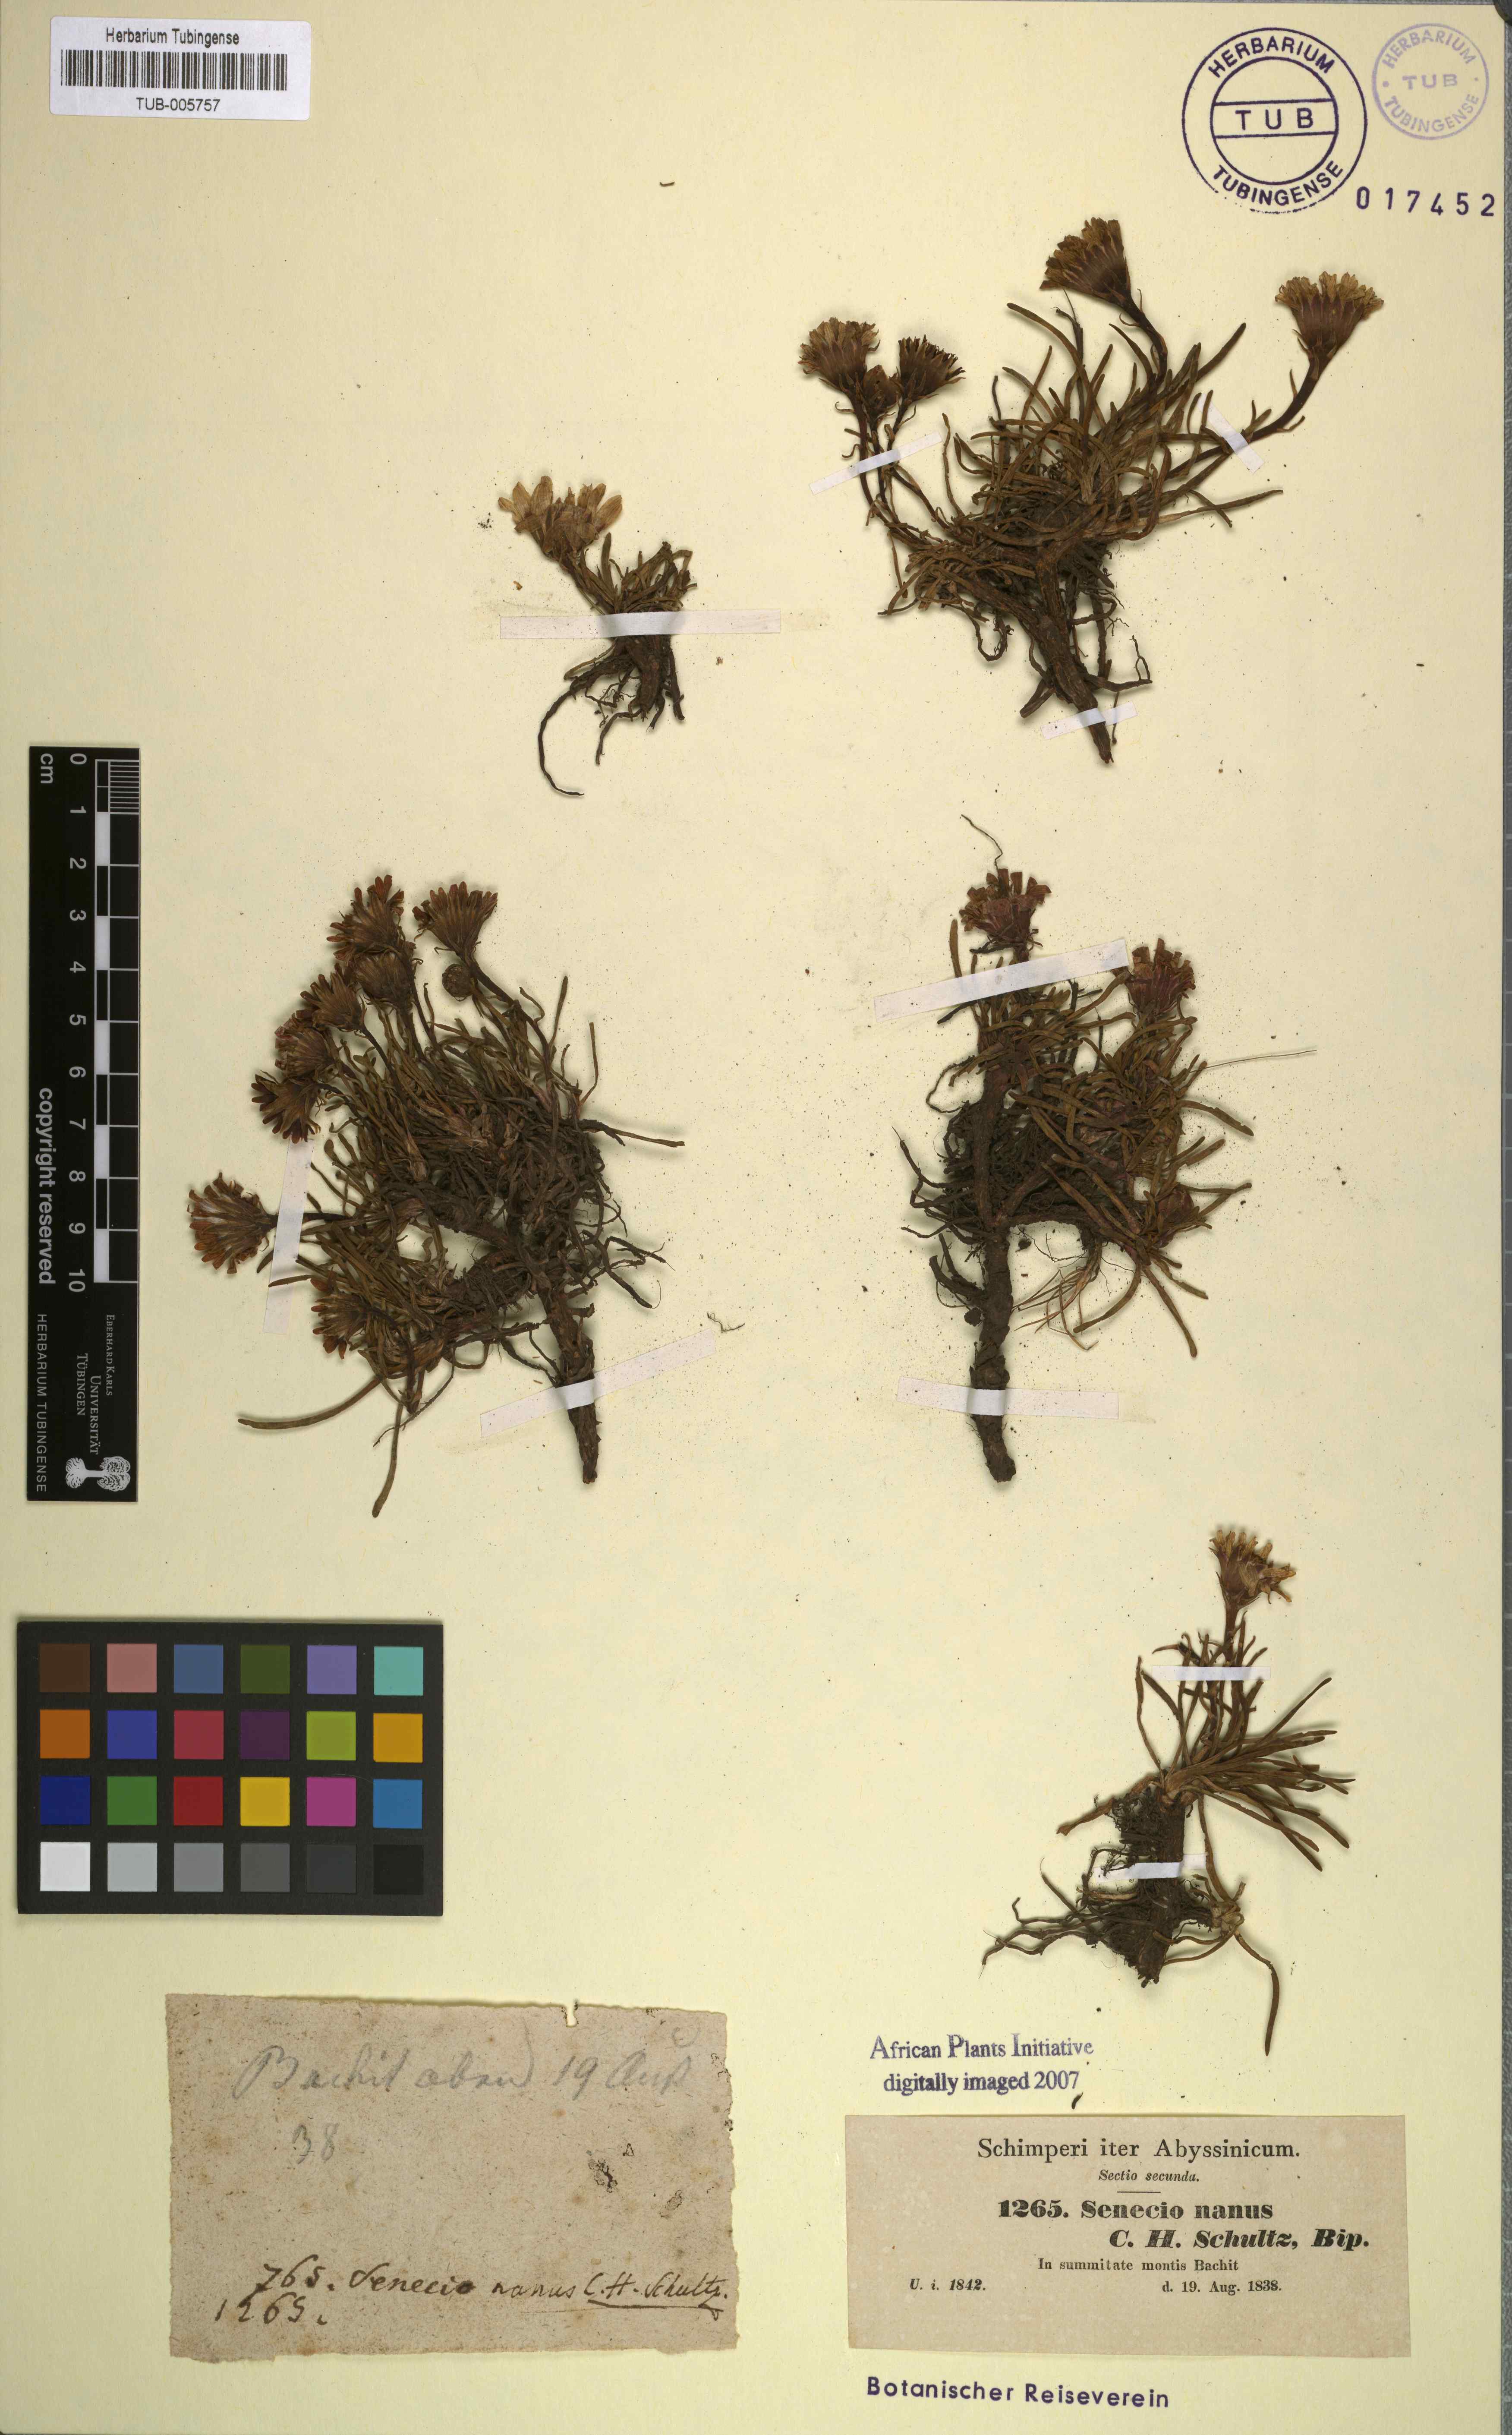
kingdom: Plantae
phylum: Tracheophyta
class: Magnoliopsida
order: Asterales
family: Asteraceae
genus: Senecio
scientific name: Senecio nanus
